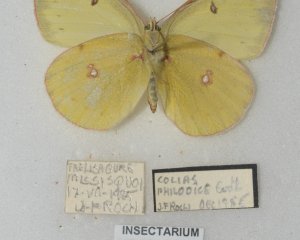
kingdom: Animalia
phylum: Arthropoda
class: Insecta
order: Lepidoptera
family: Pieridae
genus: Colias
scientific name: Colias philodice
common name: Clouded Sulphur
